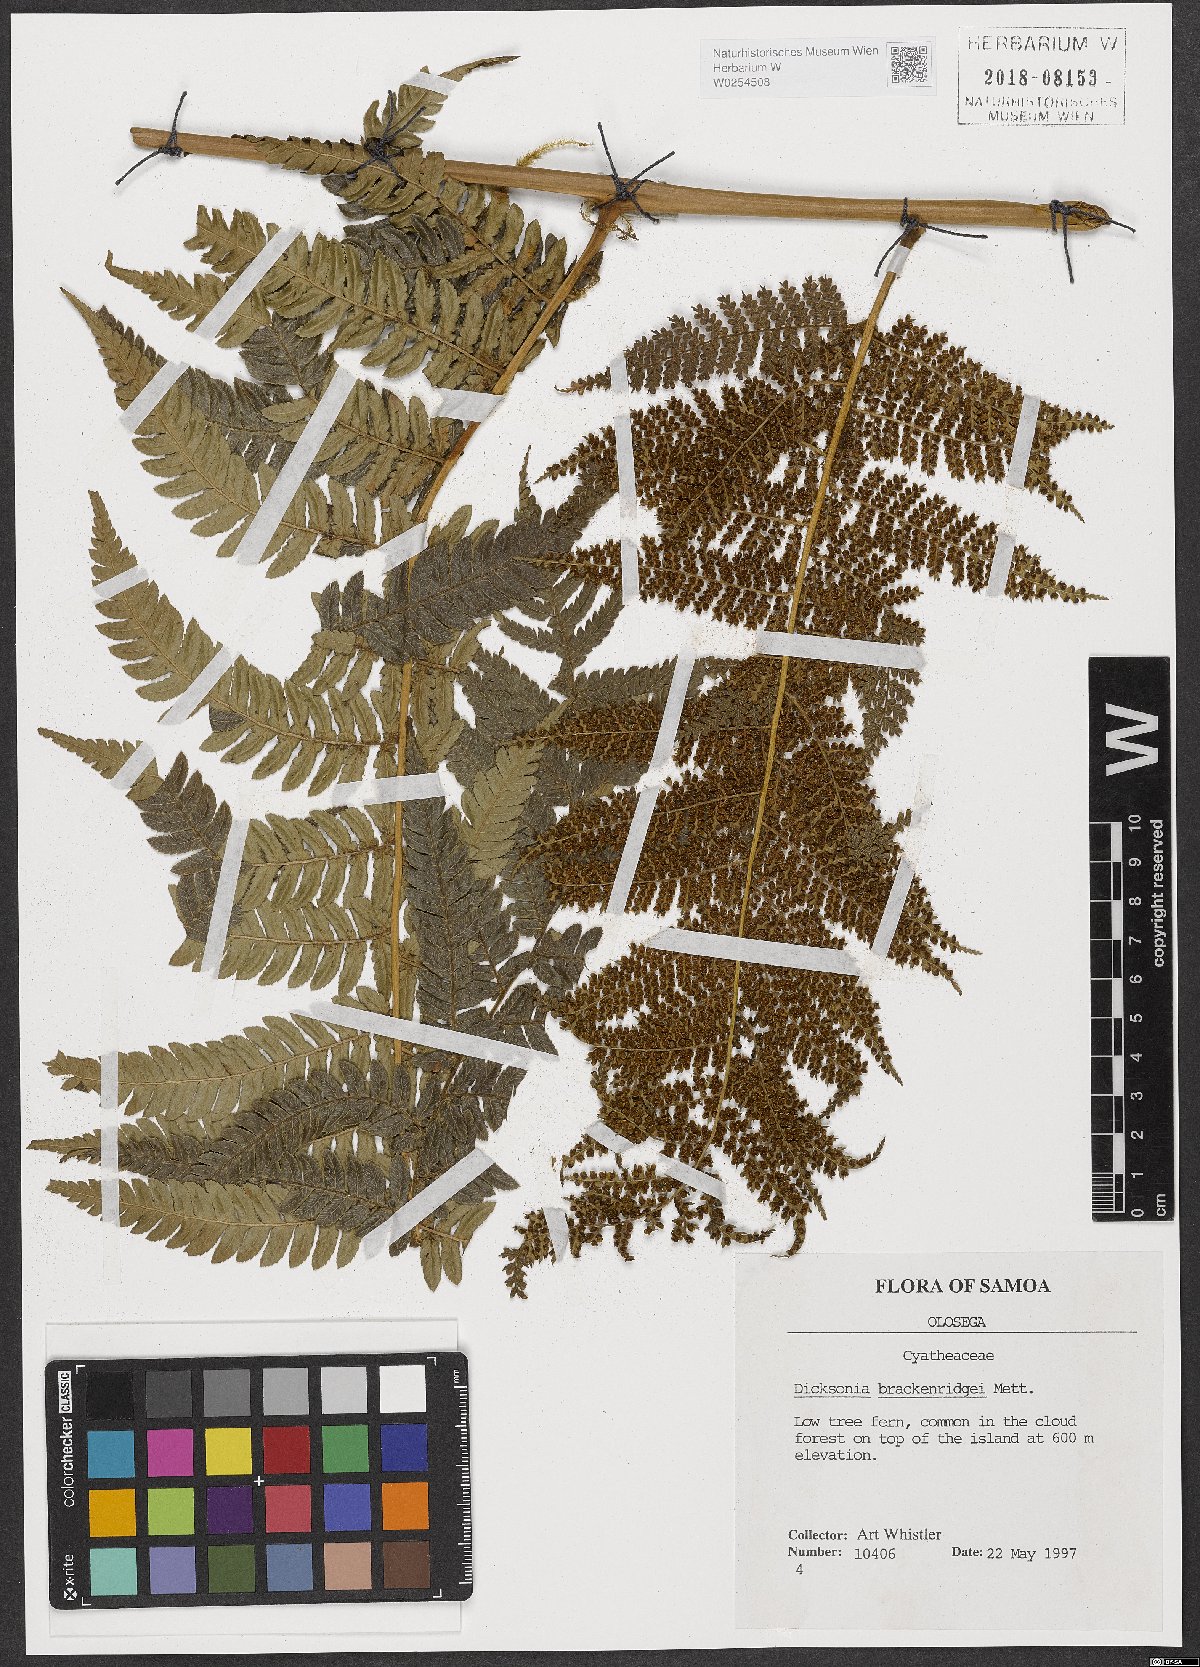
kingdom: Plantae
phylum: Tracheophyta
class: Polypodiopsida
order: Cyatheales
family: Dicksoniaceae
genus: Dicksonia
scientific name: Dicksonia brackenridgei
